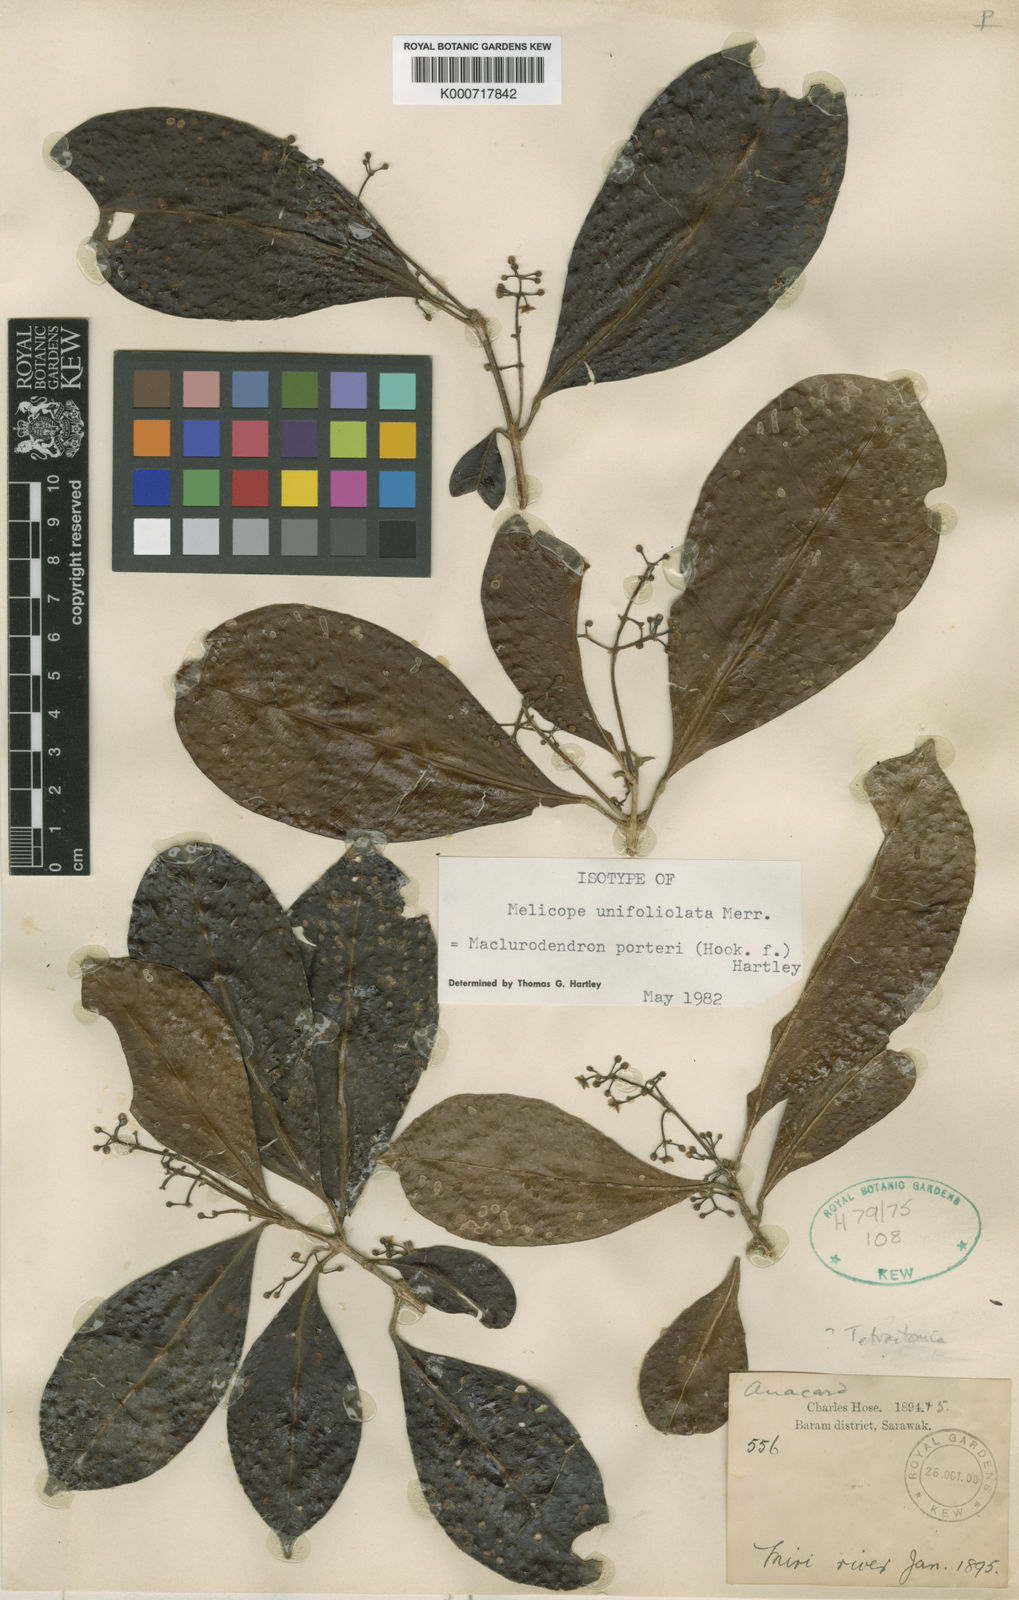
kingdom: Plantae
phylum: Tracheophyta
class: Magnoliopsida
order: Sapindales
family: Rutaceae
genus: Maclurodendron
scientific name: Maclurodendron porteri
